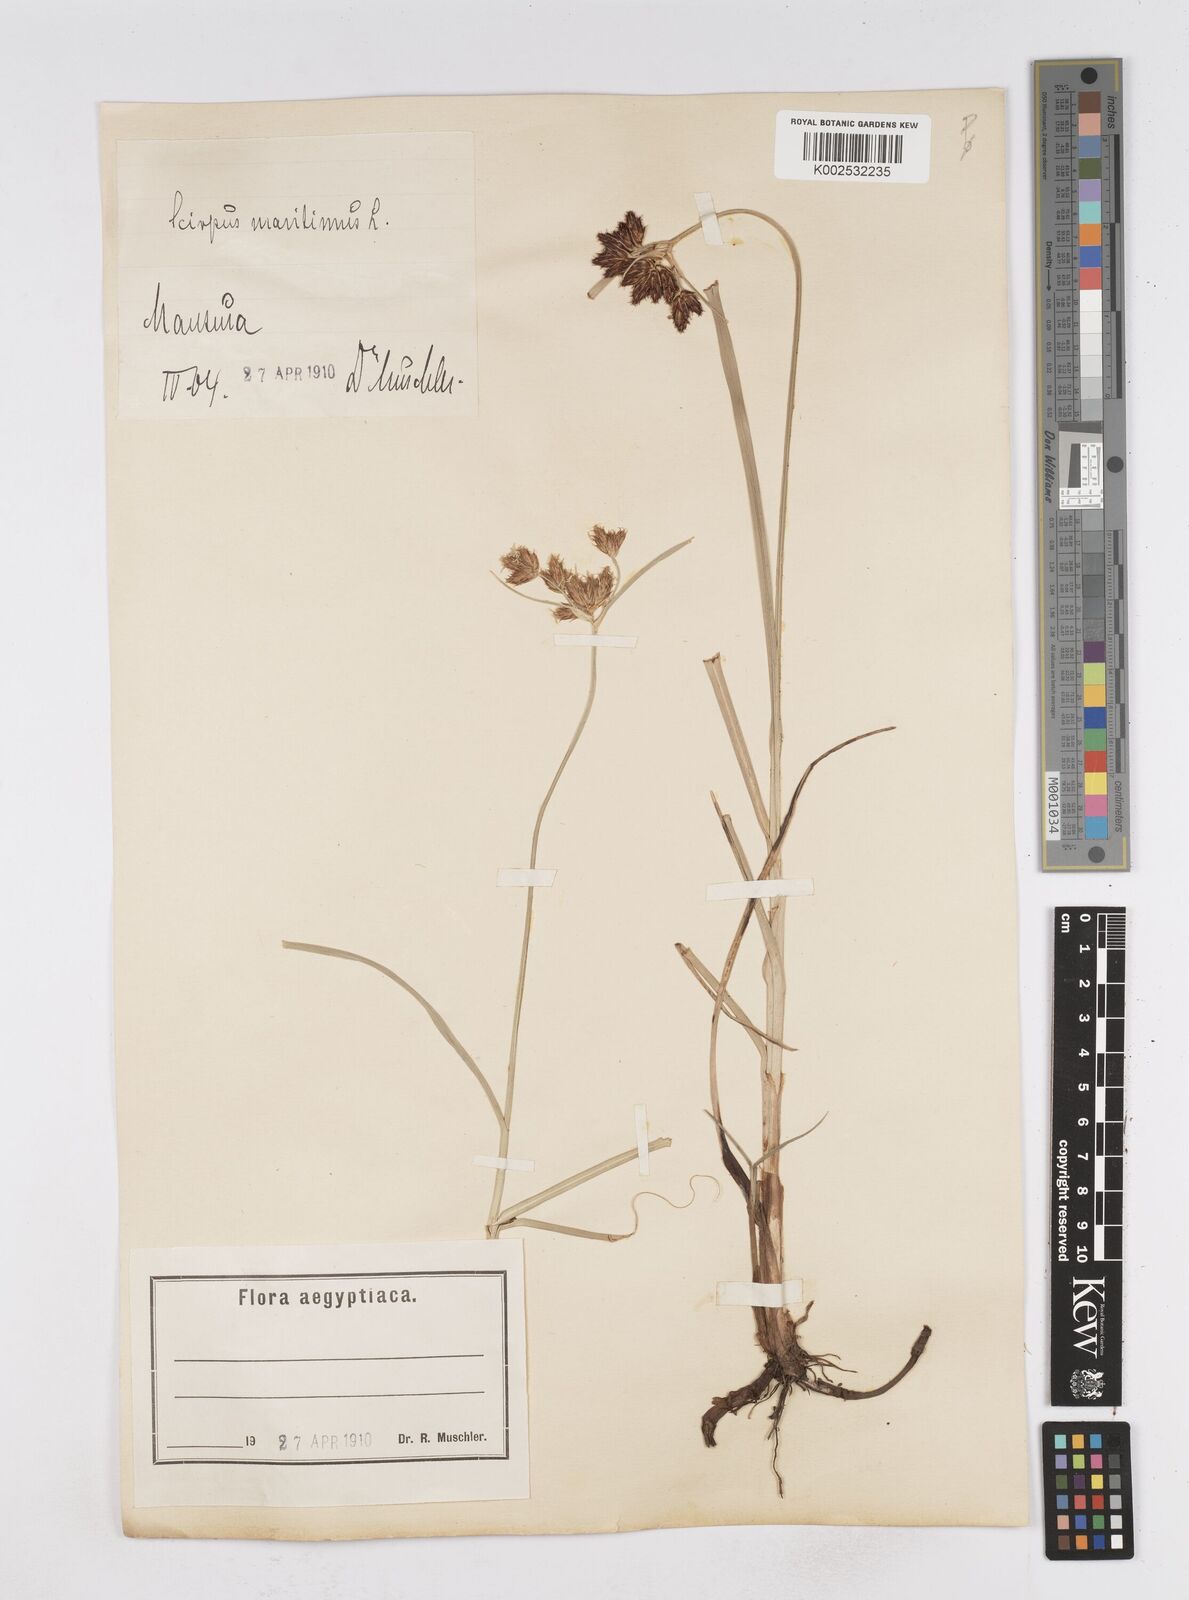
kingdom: Plantae
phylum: Tracheophyta
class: Liliopsida
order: Poales
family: Cyperaceae
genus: Bolboschoenus
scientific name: Bolboschoenus maritimus
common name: Sea club-rush
